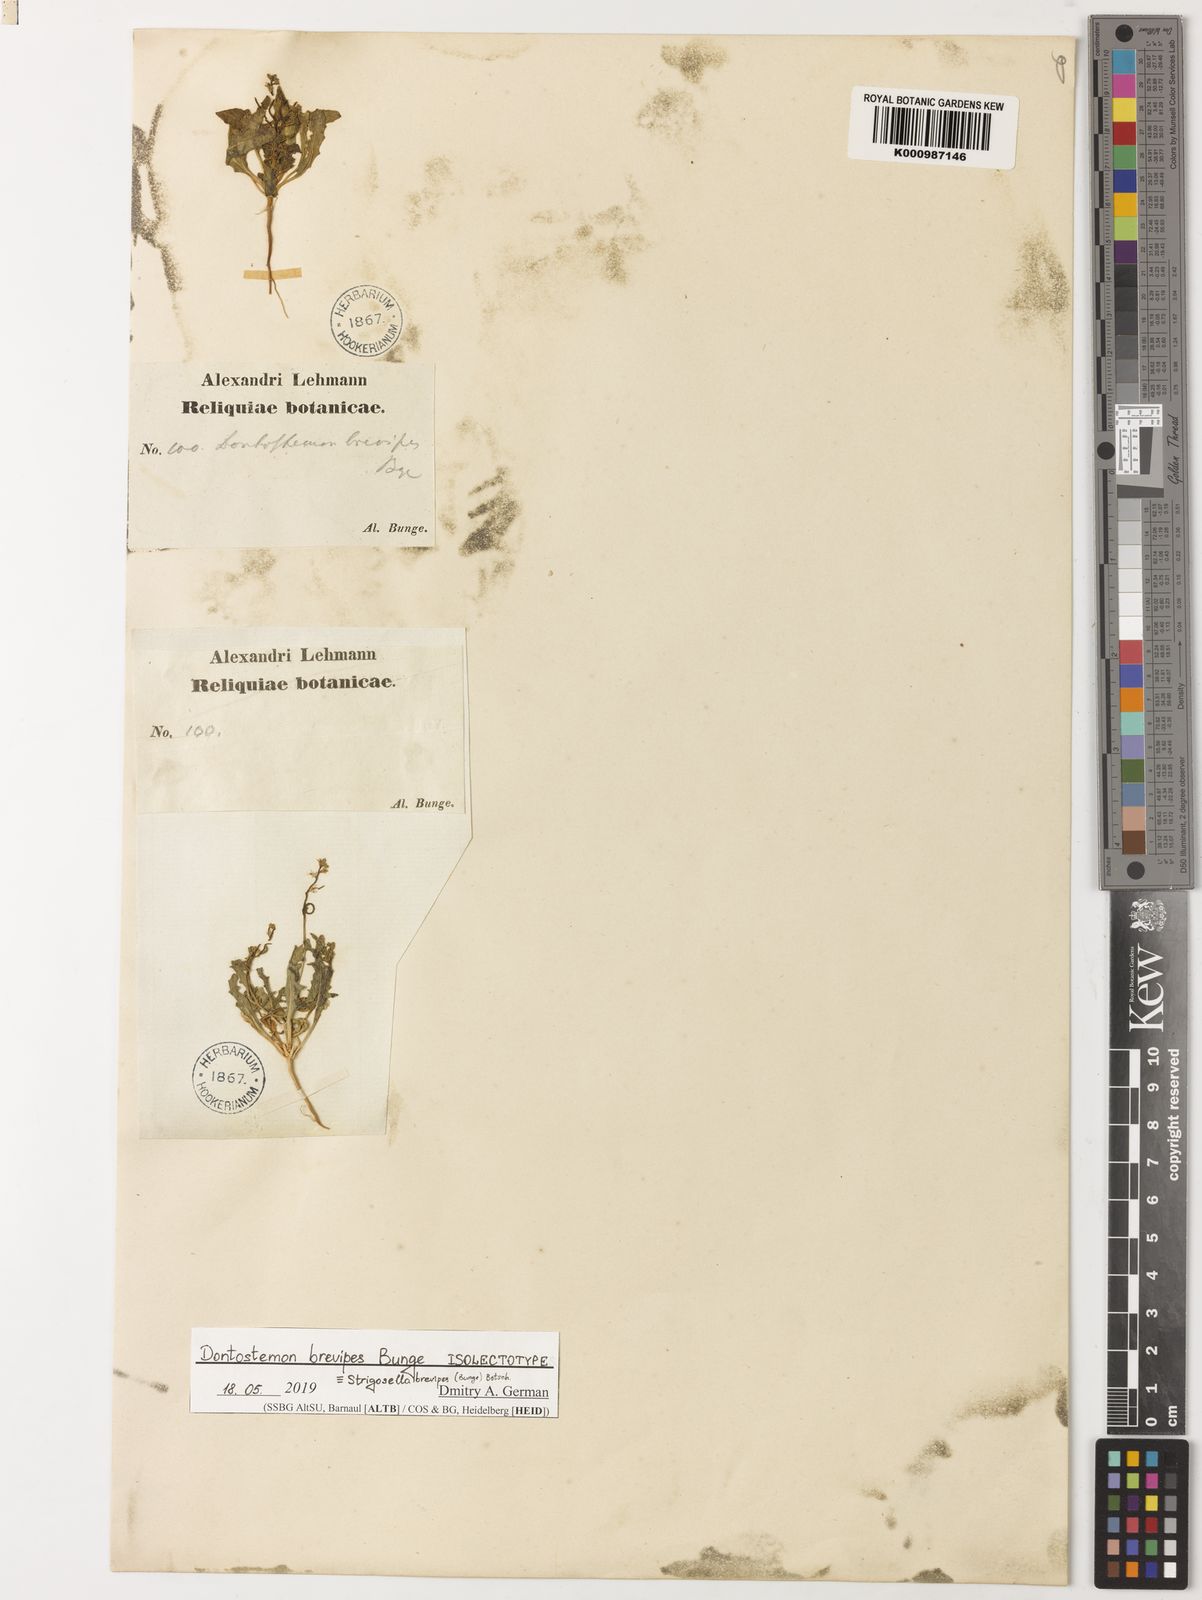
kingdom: Plantae
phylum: Tracheophyta
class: Magnoliopsida
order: Brassicales
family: Brassicaceae
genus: Strigosella
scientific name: Strigosella brevipes
